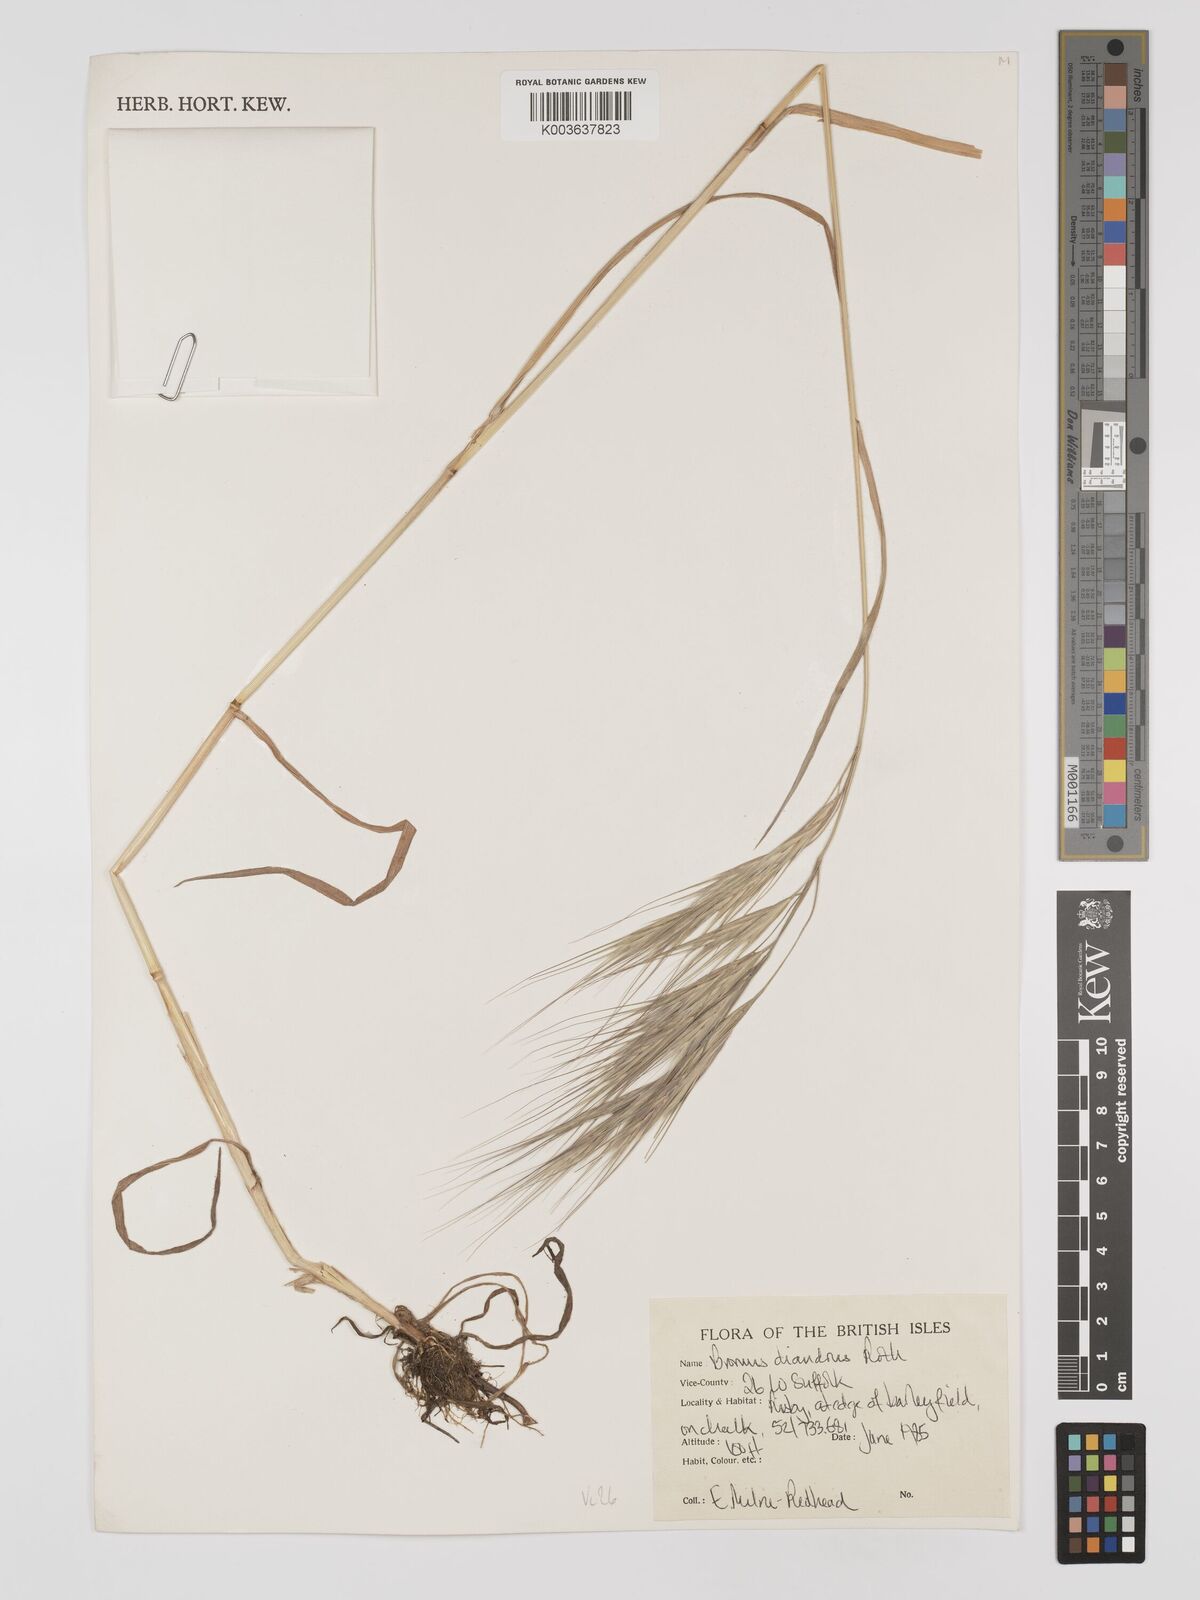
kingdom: Plantae
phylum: Tracheophyta
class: Liliopsida
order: Poales
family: Poaceae
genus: Bromus
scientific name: Bromus
